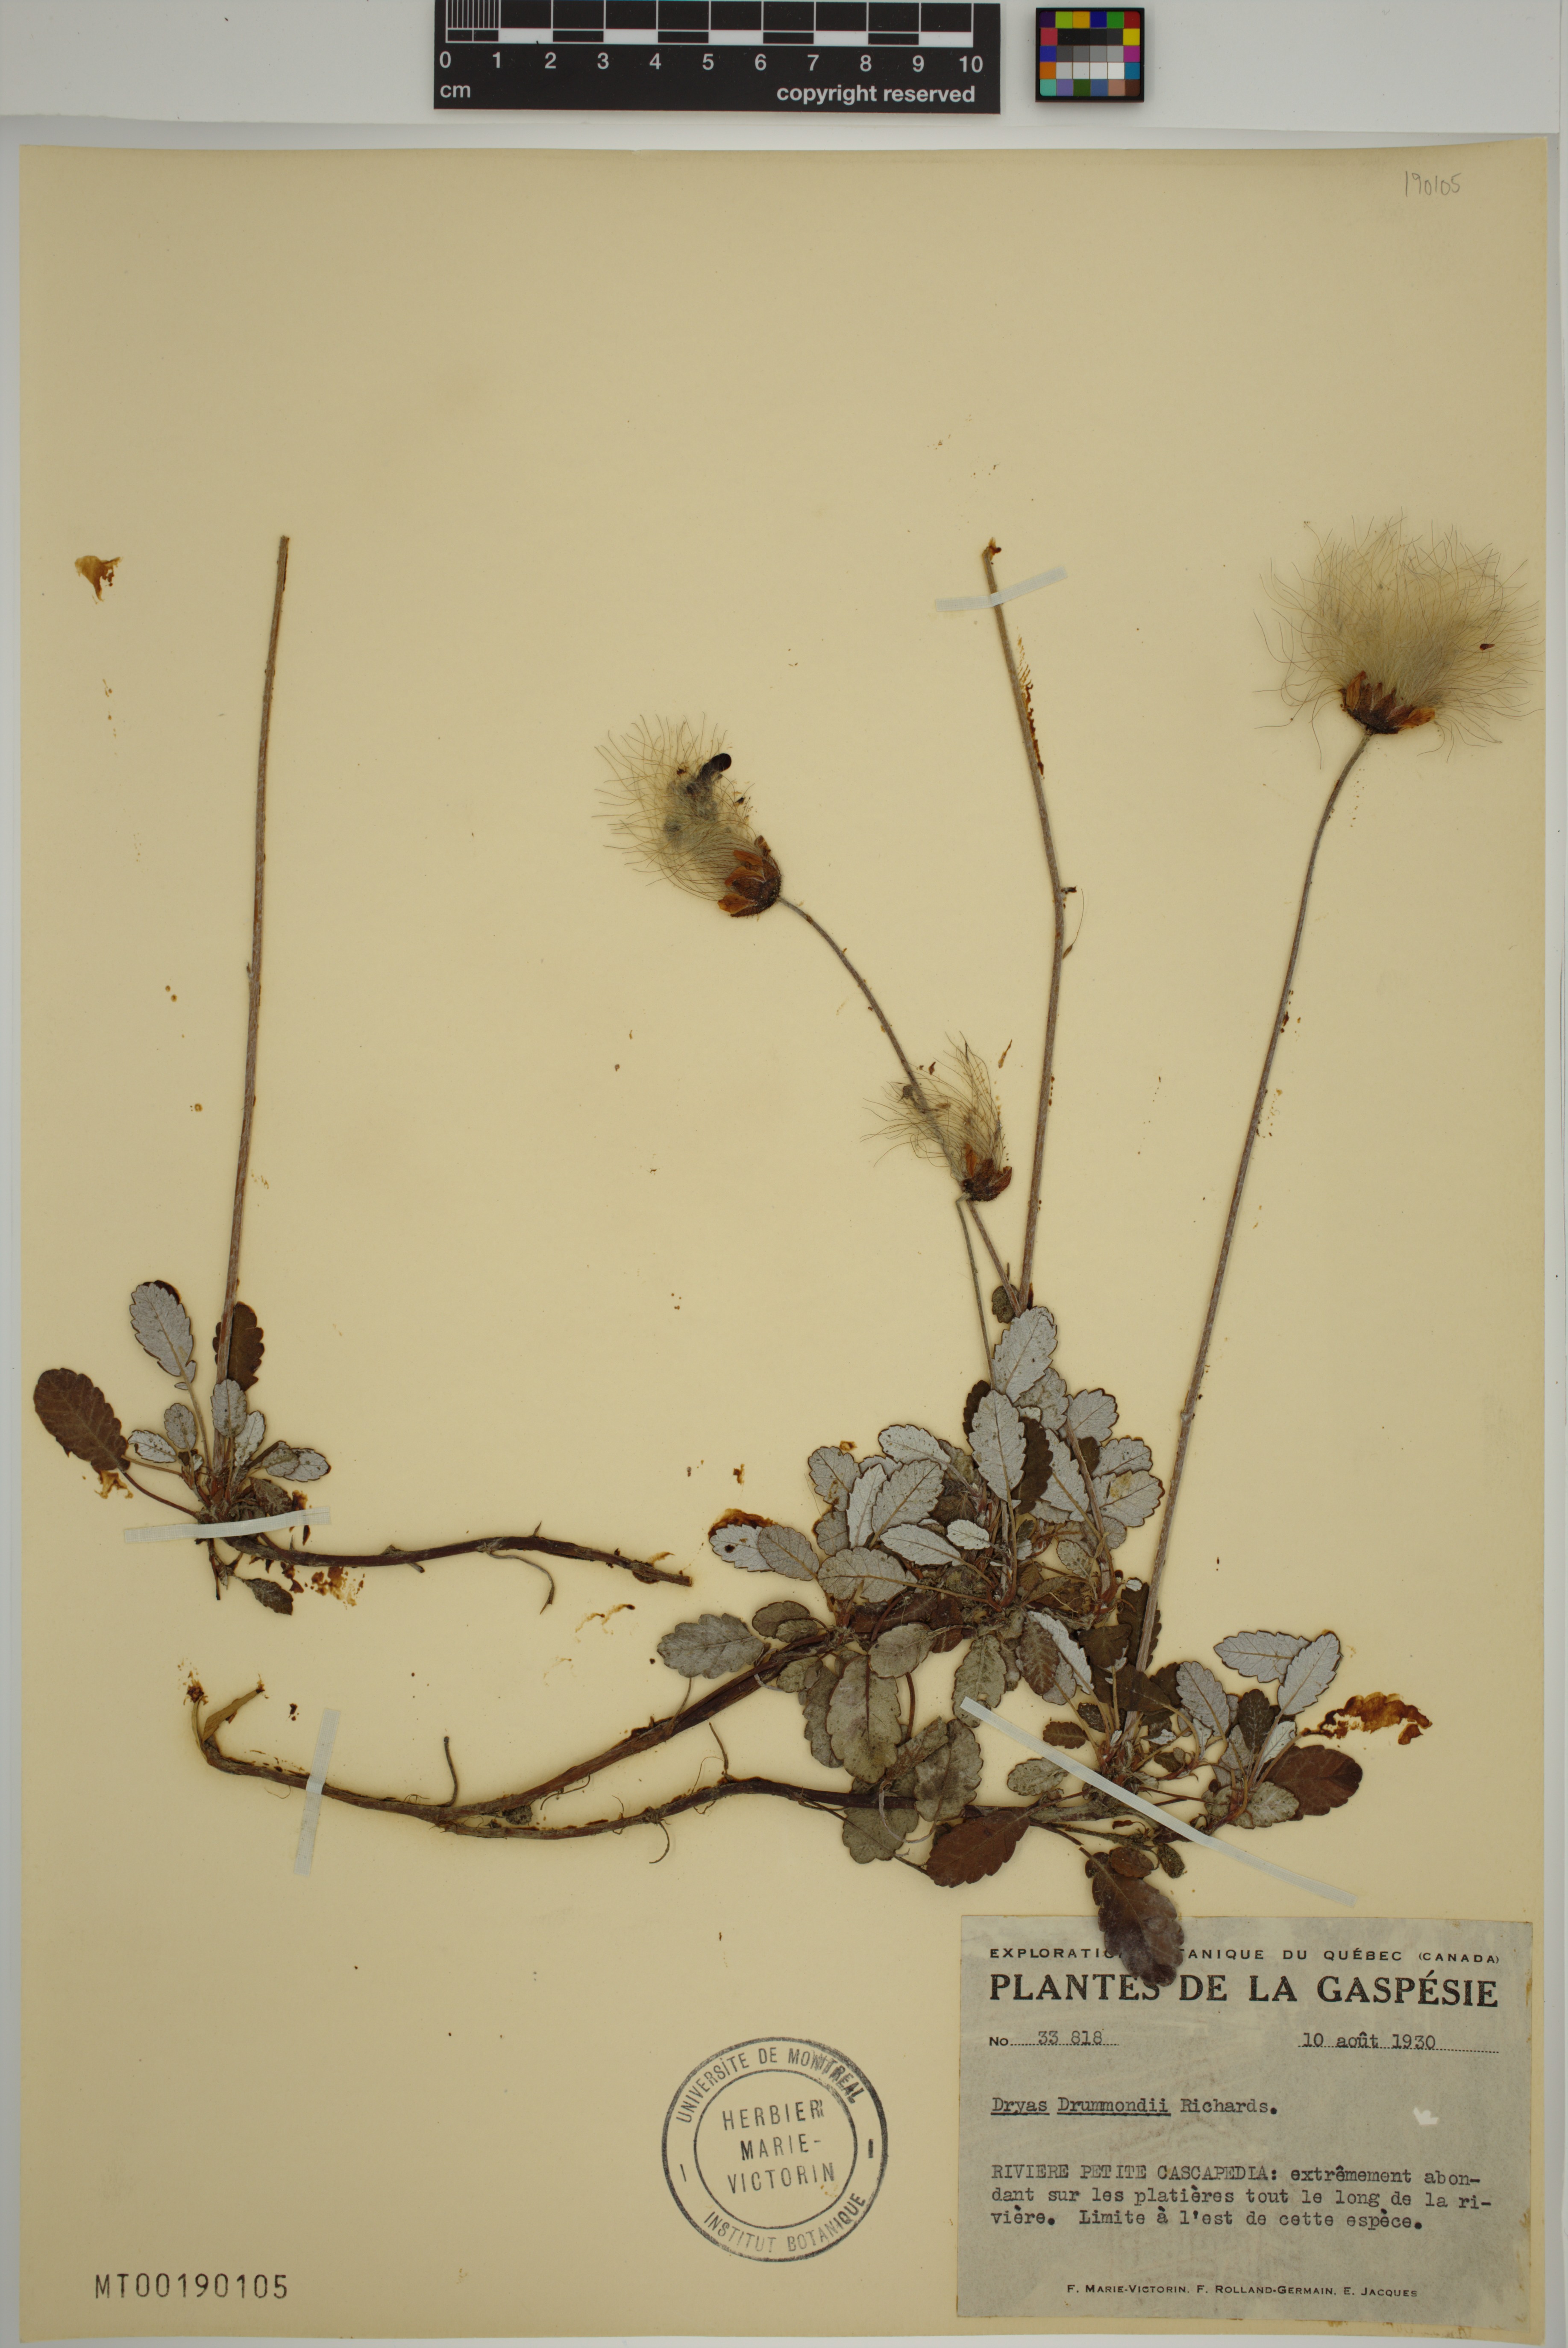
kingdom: Plantae
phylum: Tracheophyta
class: Magnoliopsida
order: Rosales
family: Rosaceae
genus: Dryas
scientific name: Dryas drummondii
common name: Drummond's dryad
